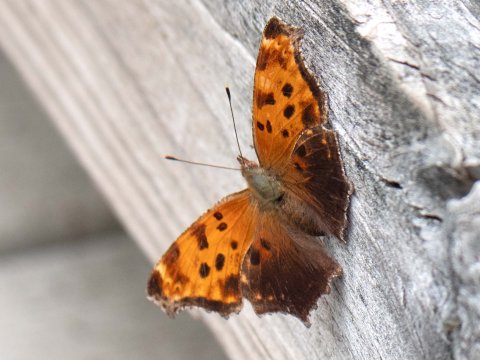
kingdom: Animalia
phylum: Arthropoda
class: Insecta
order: Lepidoptera
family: Nymphalidae
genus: Polygonia
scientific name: Polygonia comma
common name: Eastern Comma
